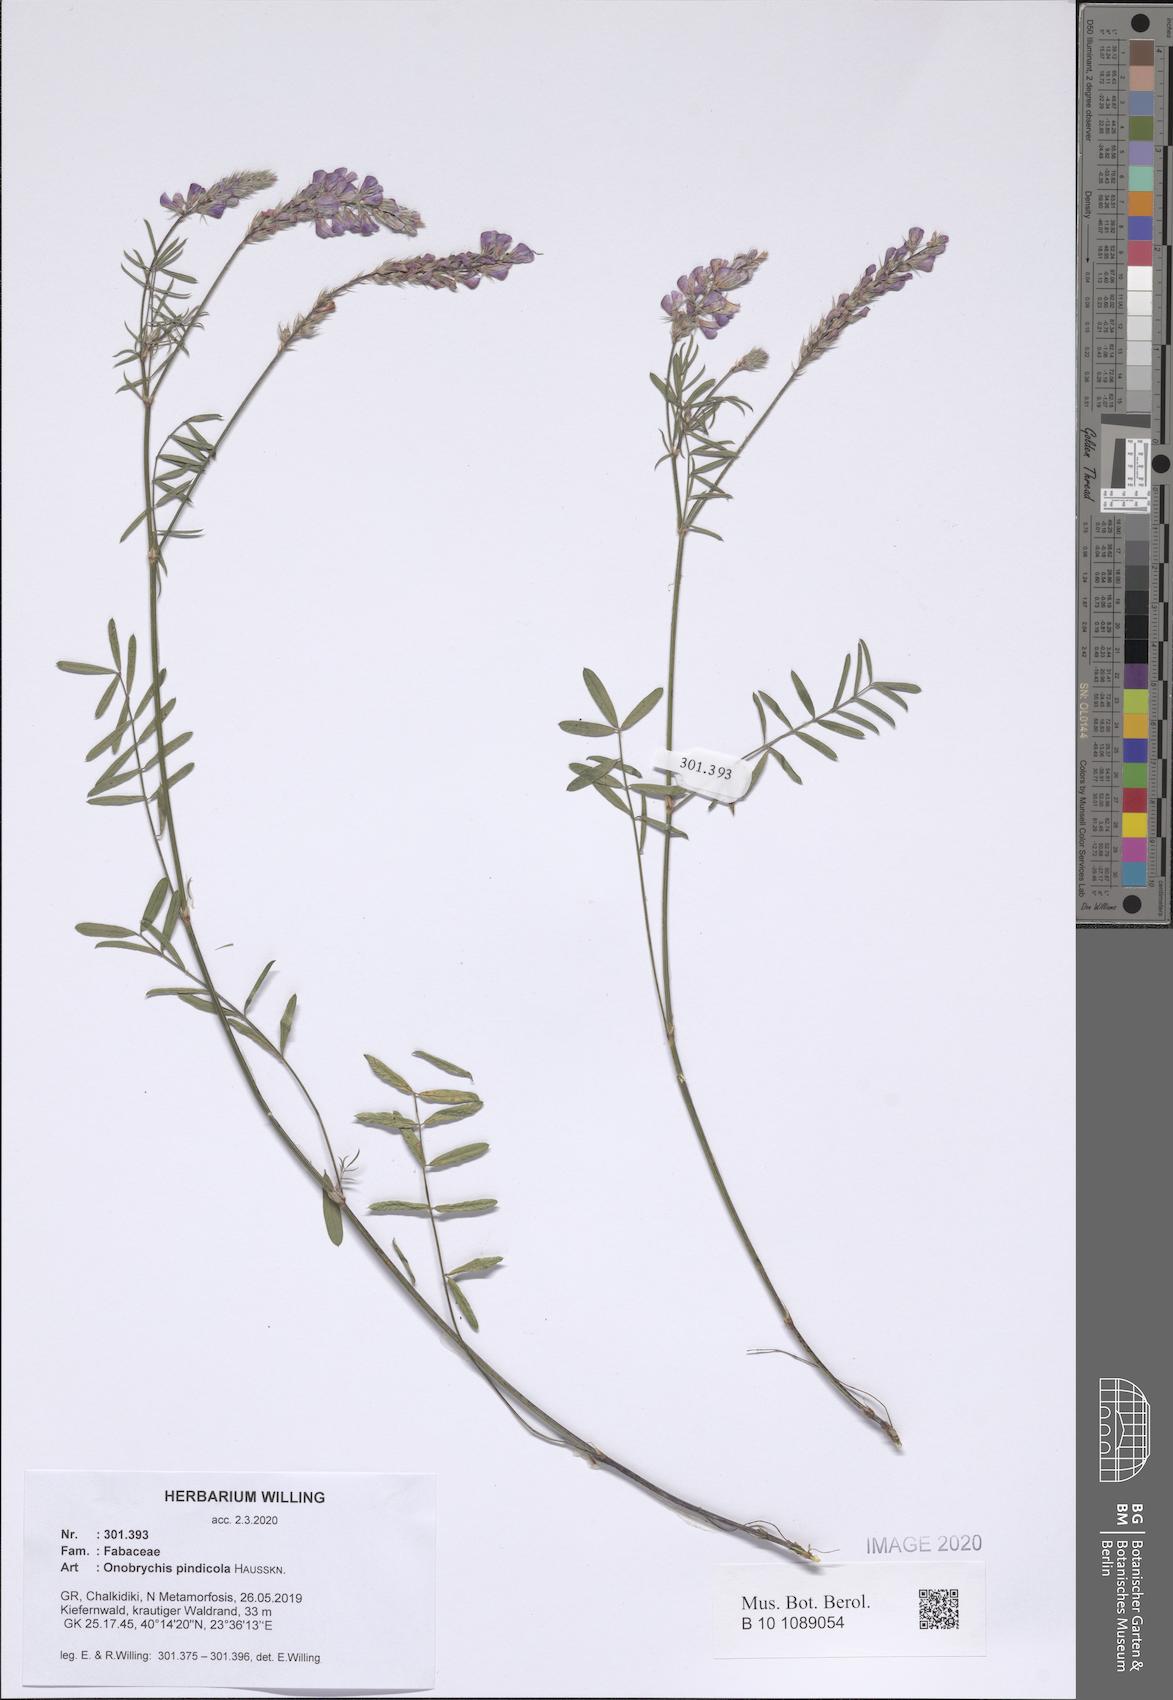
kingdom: Plantae
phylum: Tracheophyta
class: Magnoliopsida
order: Fabales
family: Fabaceae
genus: Onobrychis
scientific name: Onobrychis pindicola
